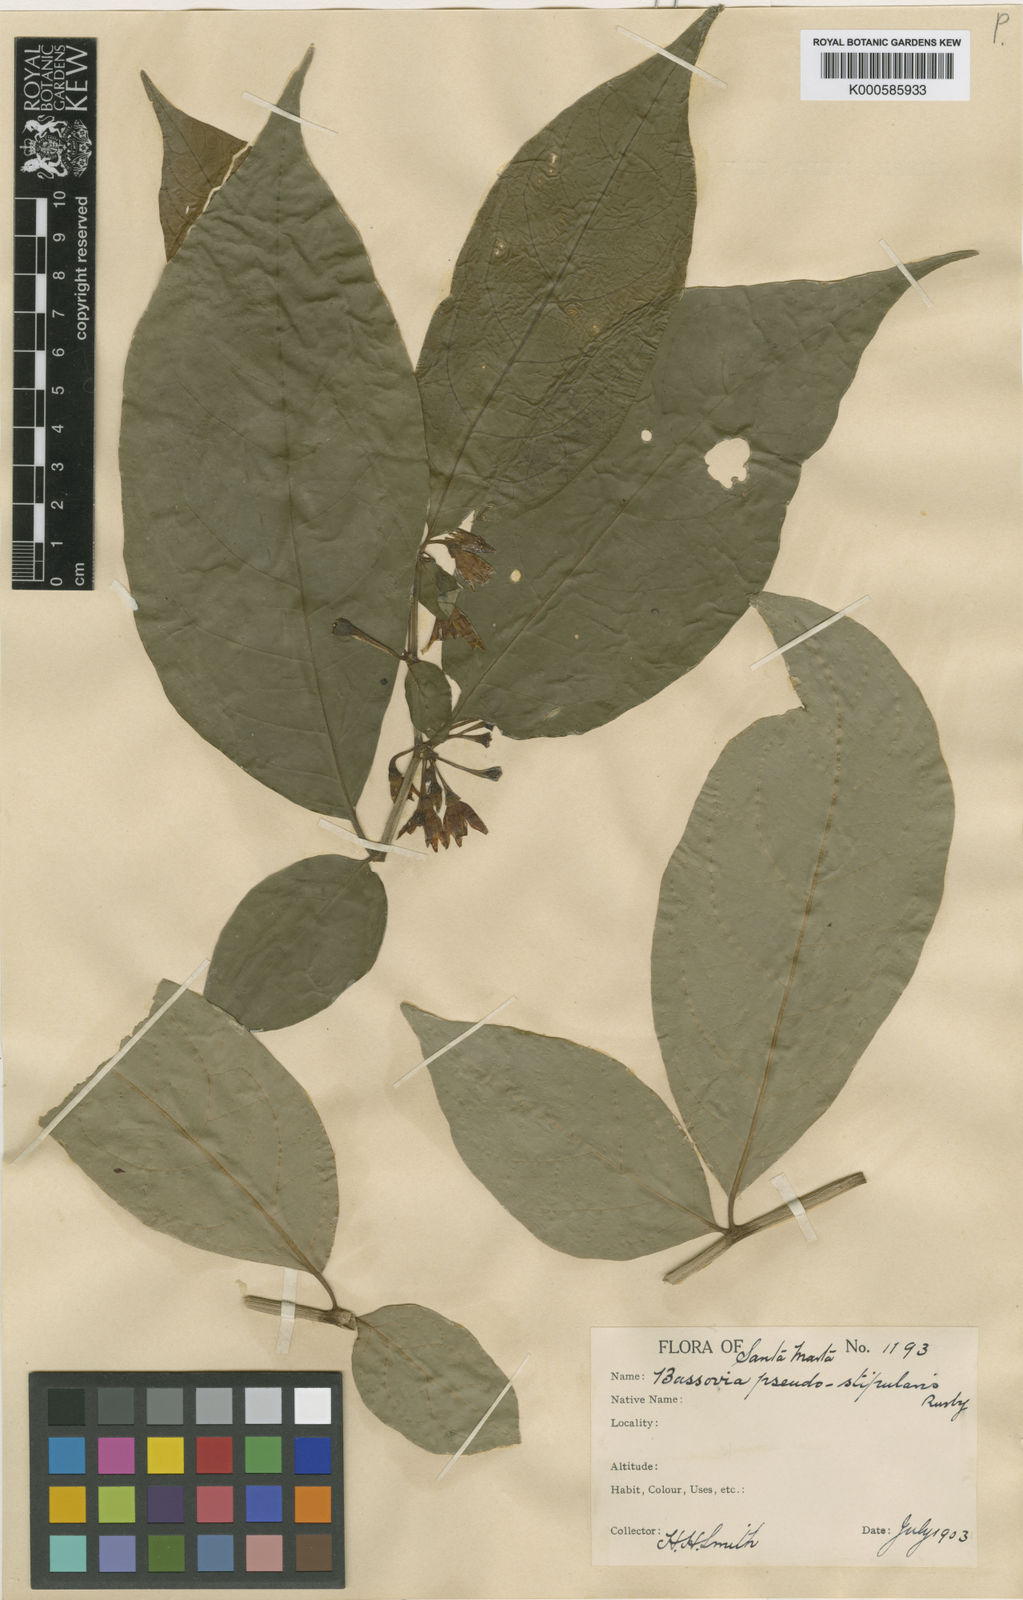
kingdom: Plantae
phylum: Tracheophyta
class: Magnoliopsida
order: Solanales
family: Solanaceae
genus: Iochroma
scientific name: Iochroma Acnistus spec
